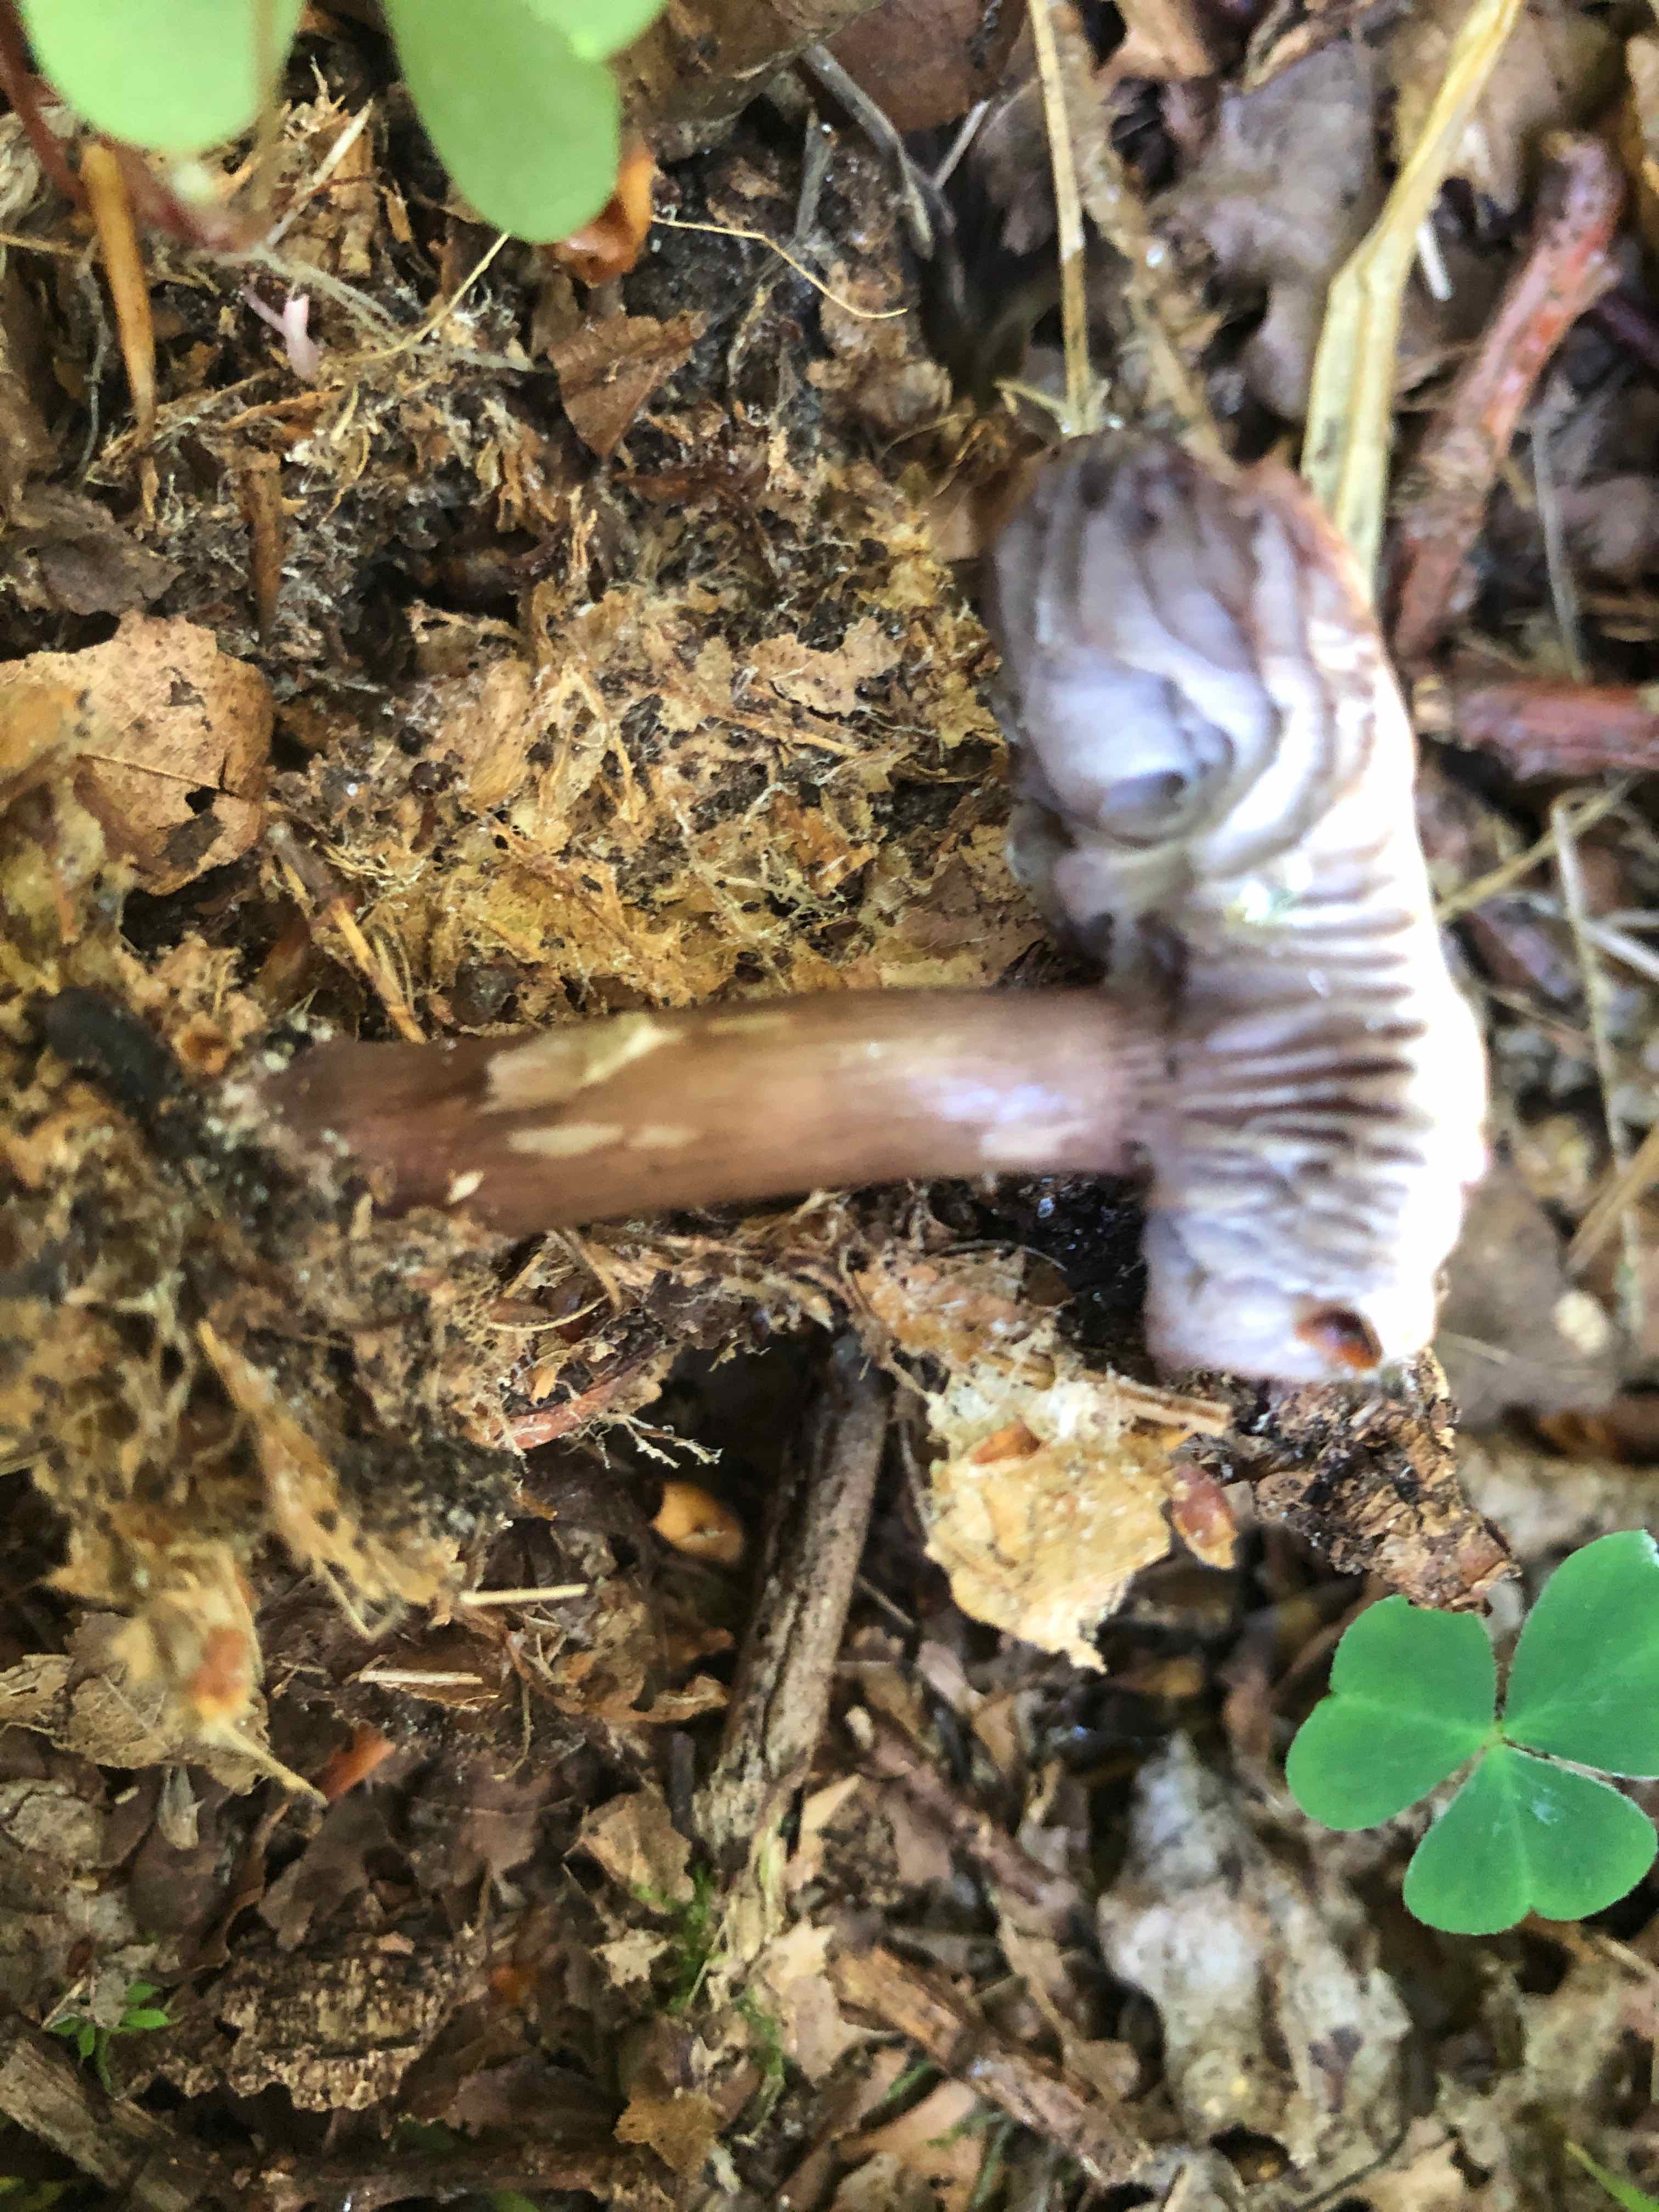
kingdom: Fungi
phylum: Basidiomycota
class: Agaricomycetes
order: Agaricales
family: Mycenaceae
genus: Mycena
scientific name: Mycena pelianthina
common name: mørkbladet huesvamp
